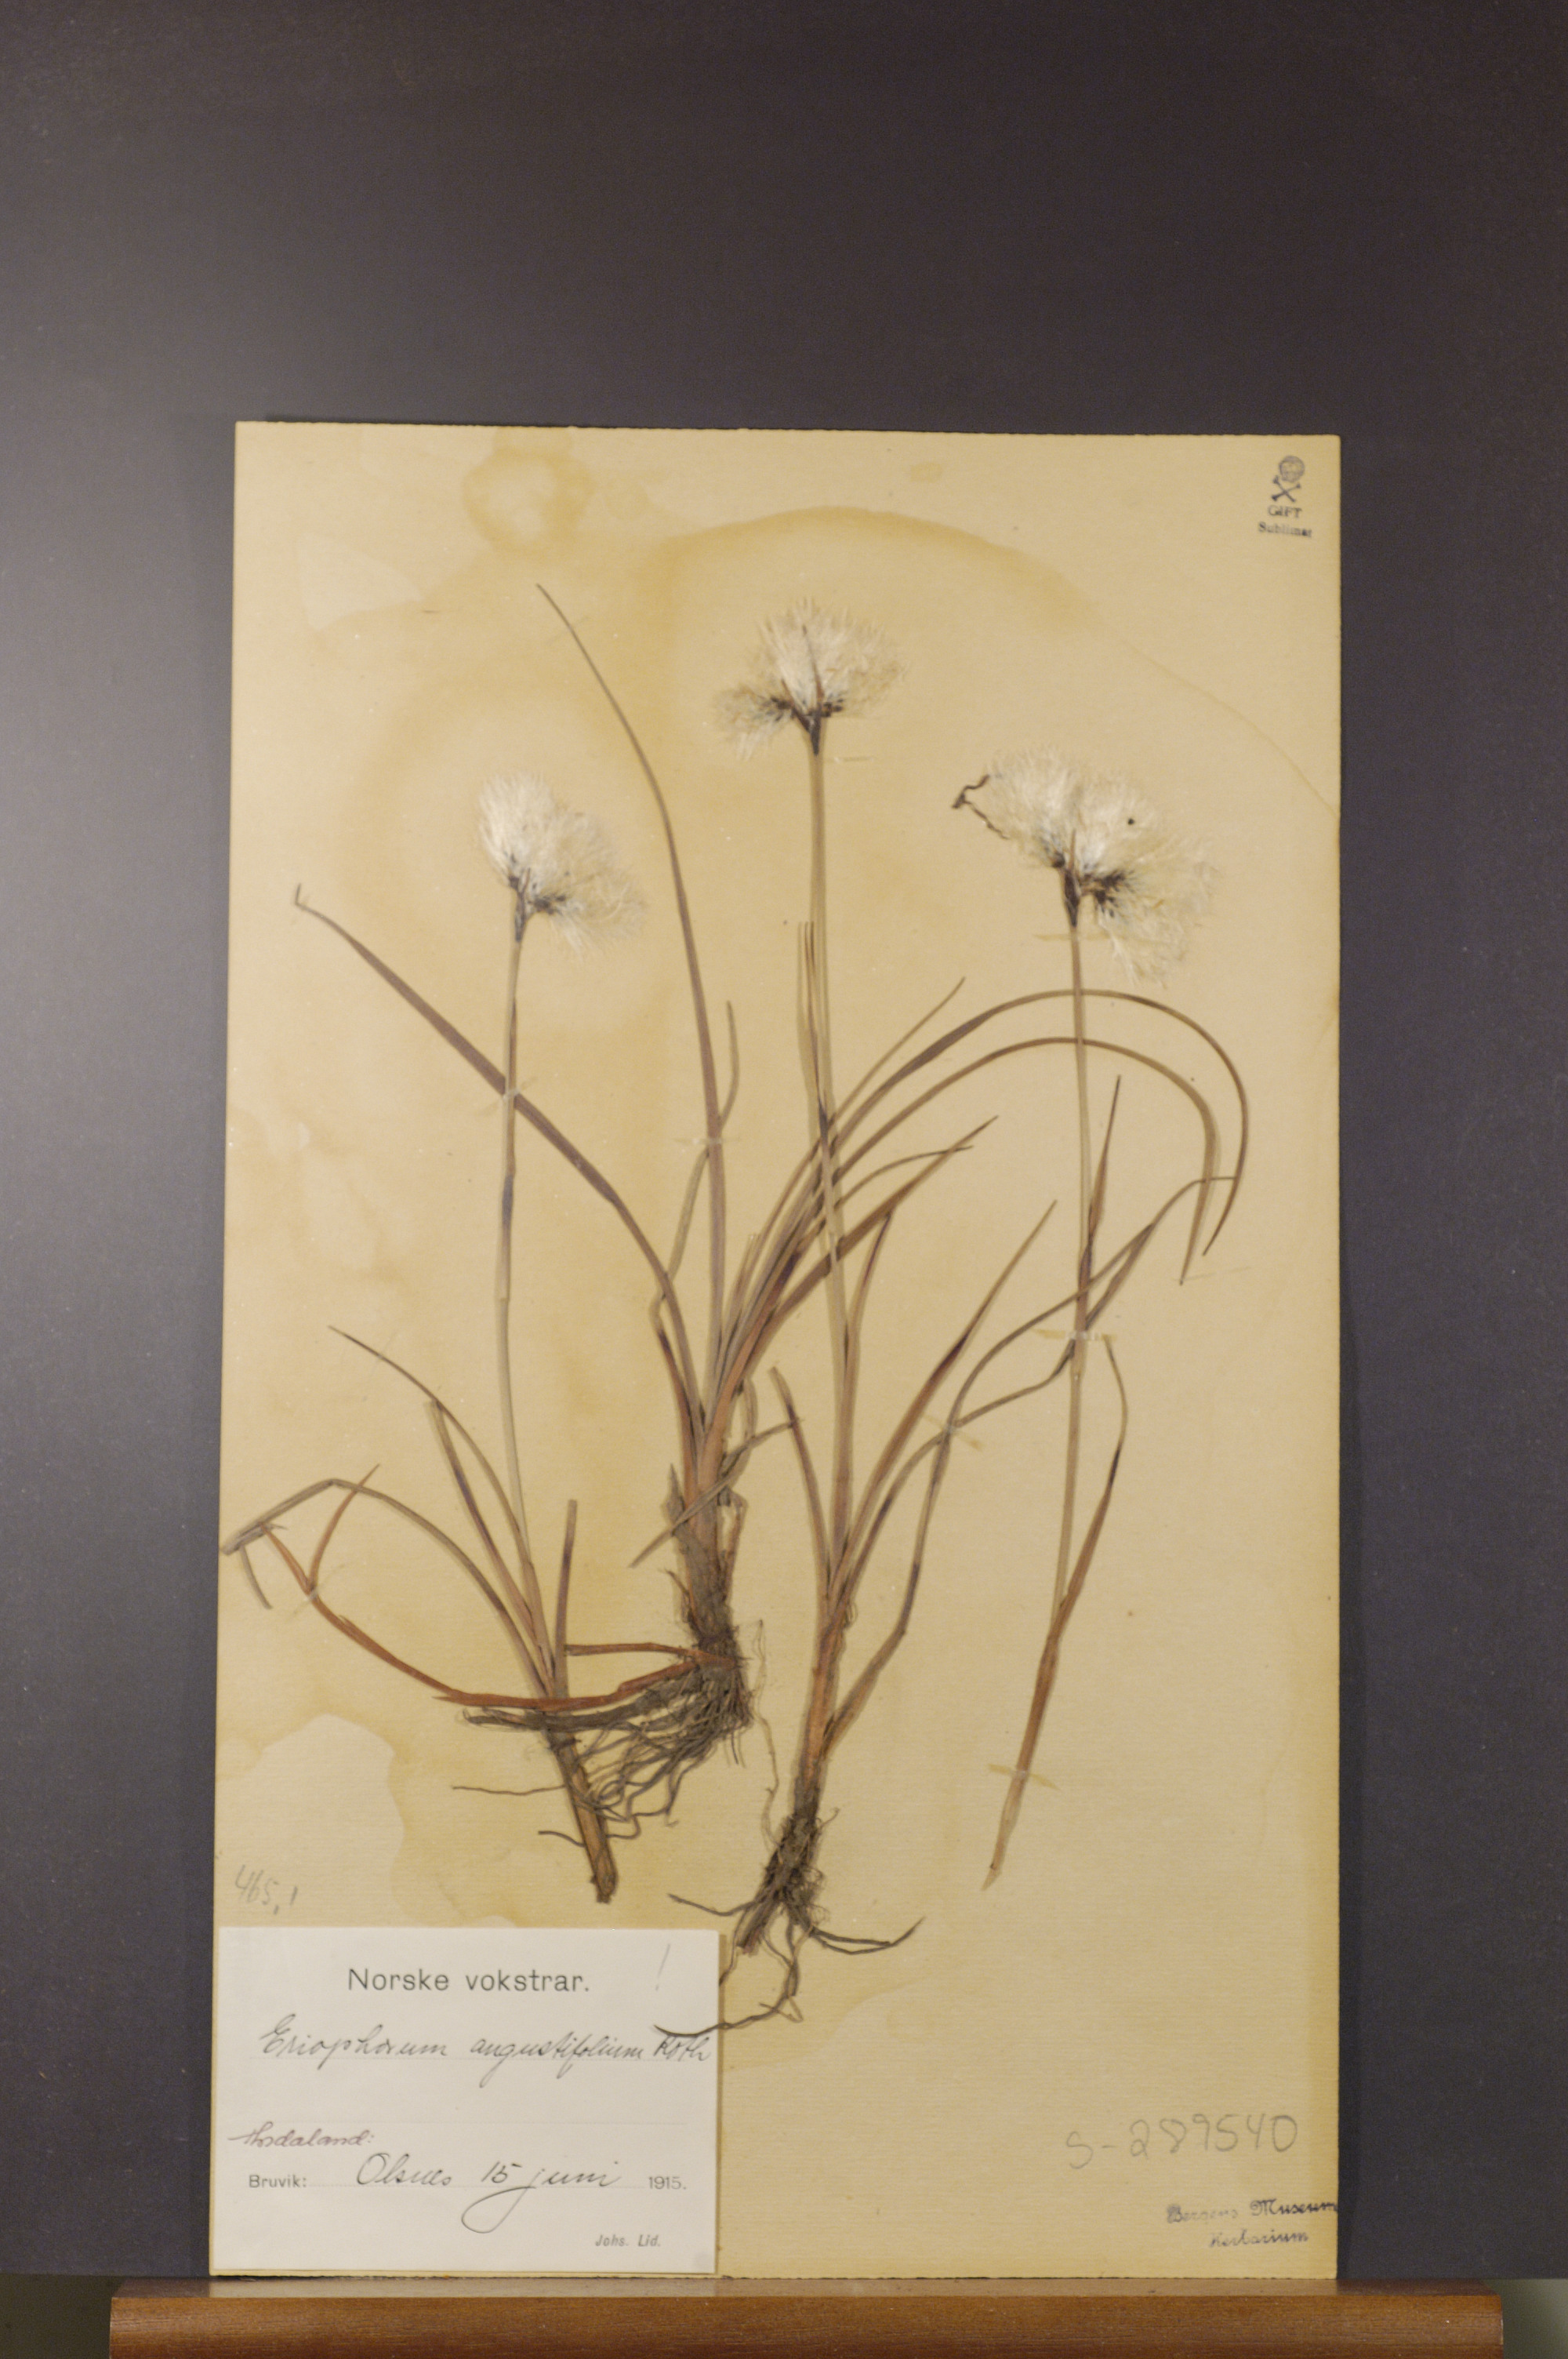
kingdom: Plantae
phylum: Tracheophyta
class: Liliopsida
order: Poales
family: Cyperaceae
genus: Eriophorum
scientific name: Eriophorum angustifolium
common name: Common cottongrass
